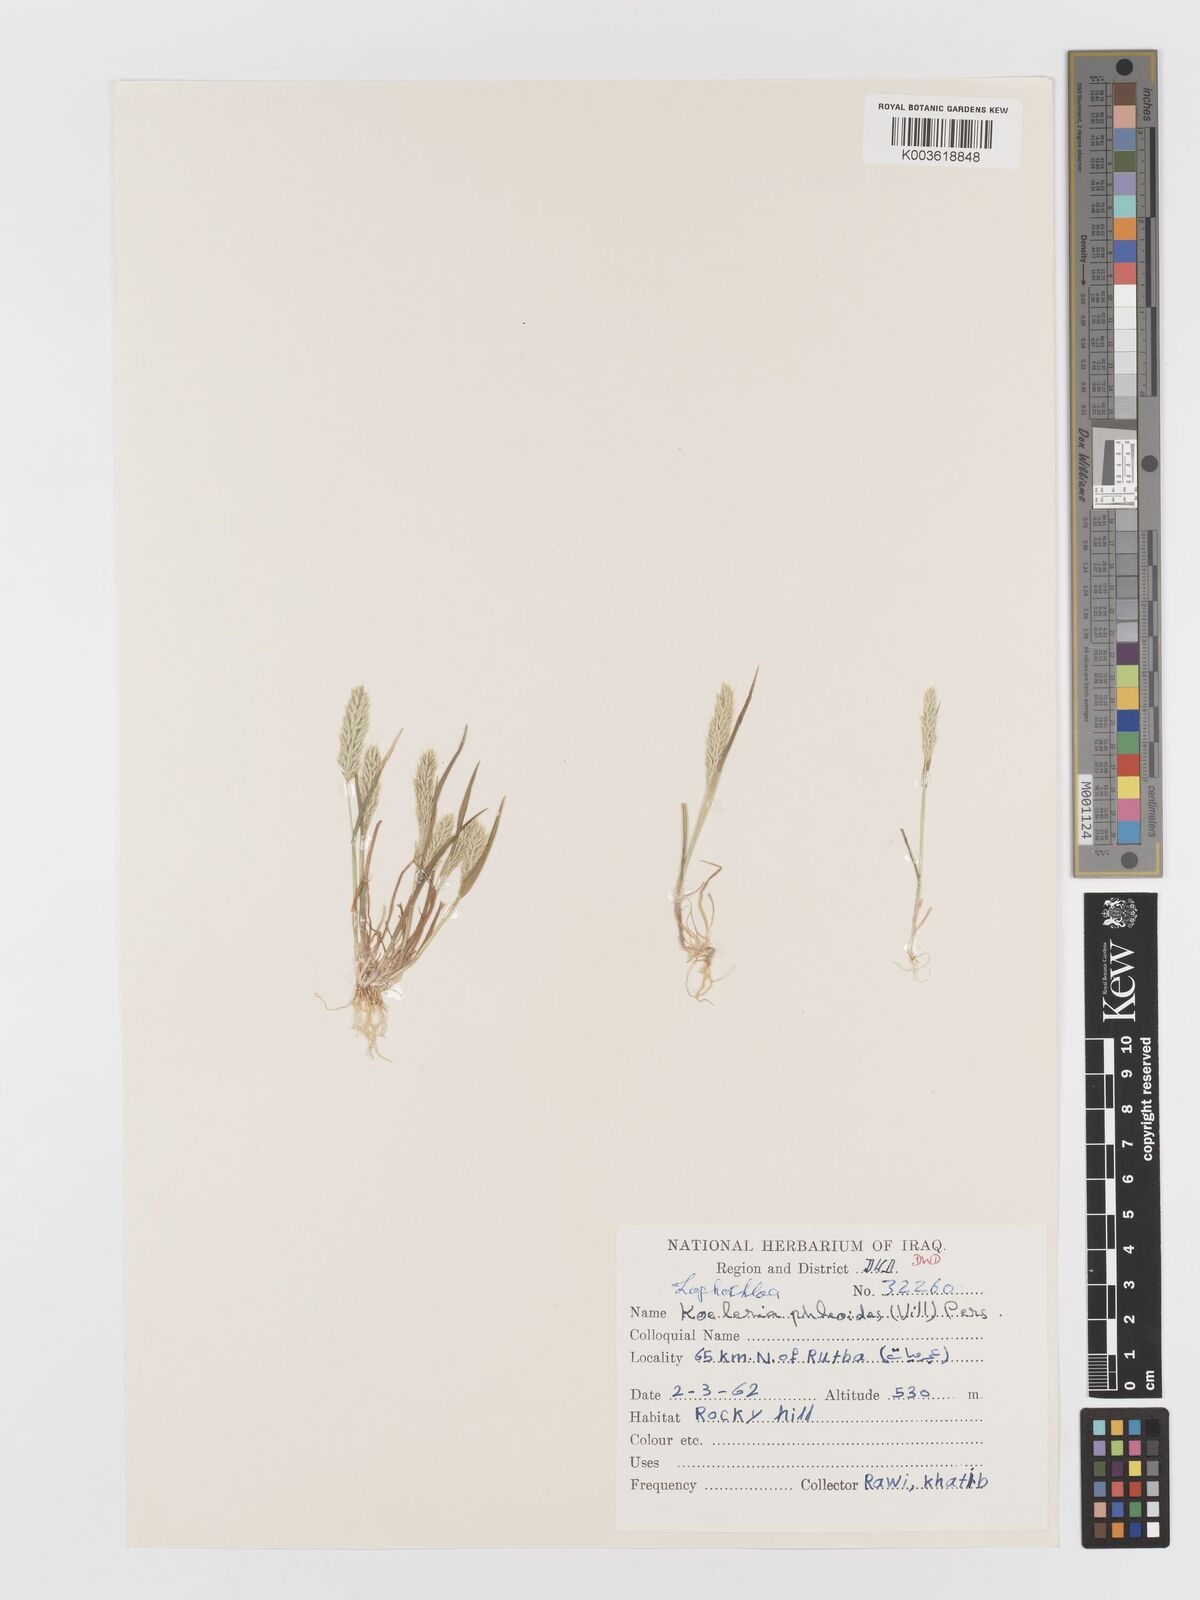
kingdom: Plantae
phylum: Tracheophyta
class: Liliopsida
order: Poales
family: Poaceae
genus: Rostraria
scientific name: Rostraria cristata
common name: Mediterranean hair-grass
